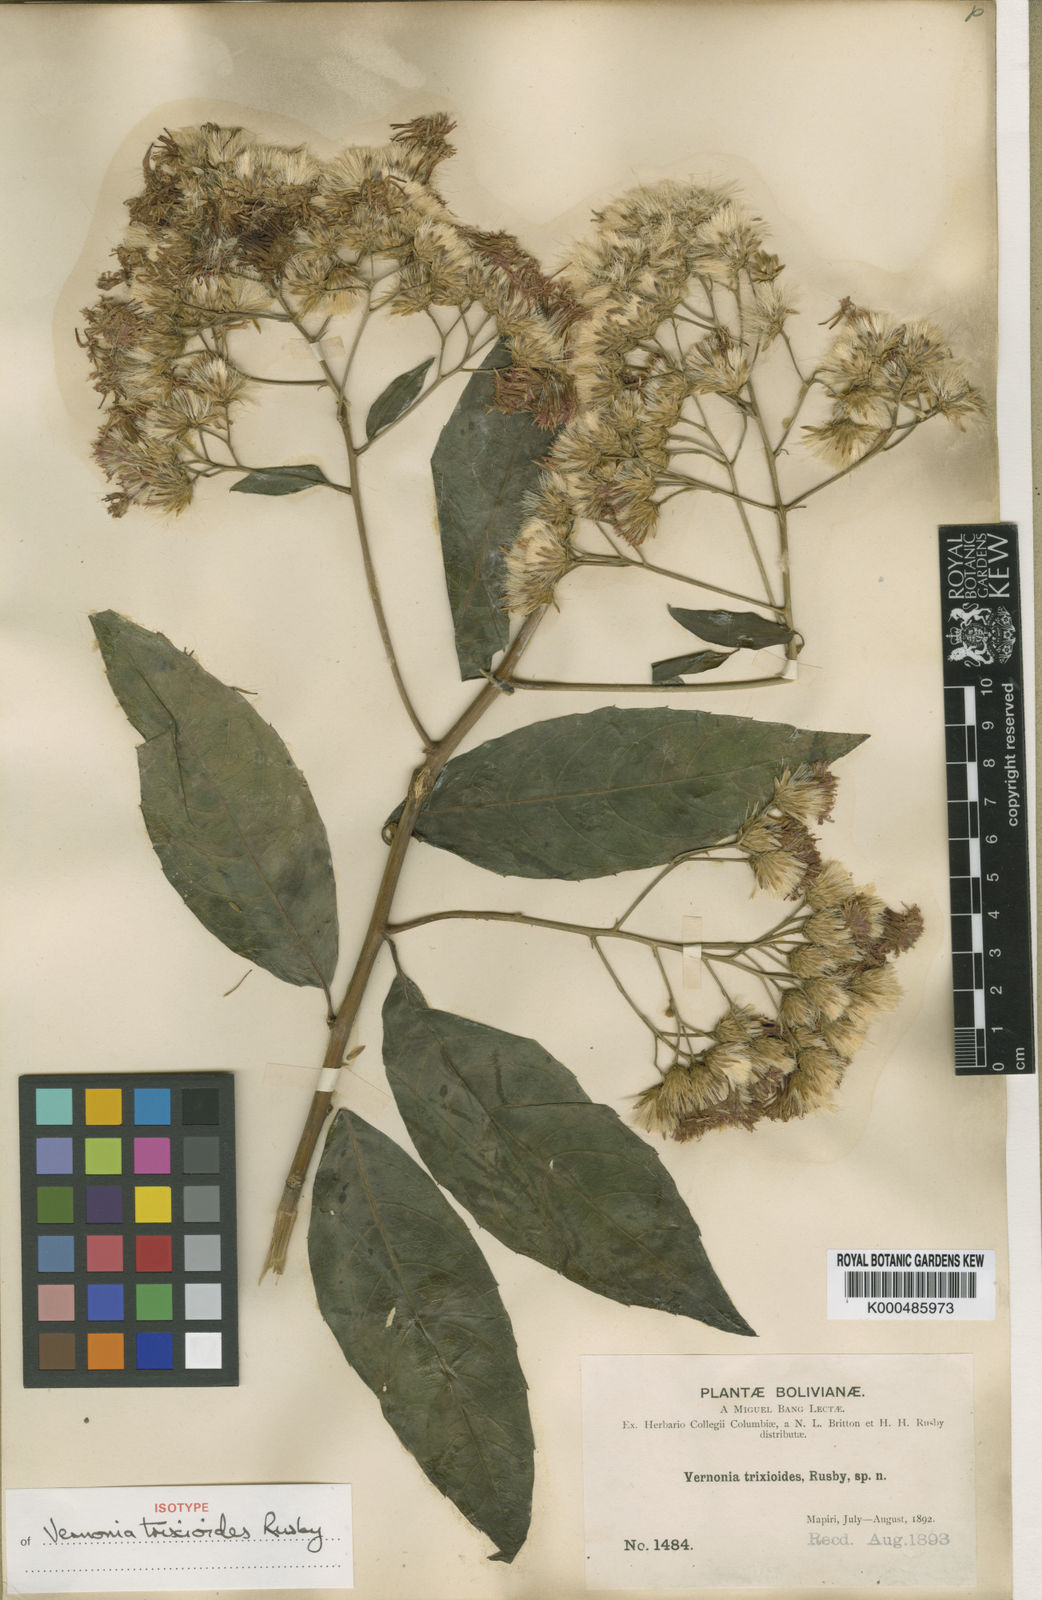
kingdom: Plantae
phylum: Tracheophyta
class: Magnoliopsida
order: Asterales
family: Asteraceae
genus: Quechualia
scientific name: Quechualia trixioides
